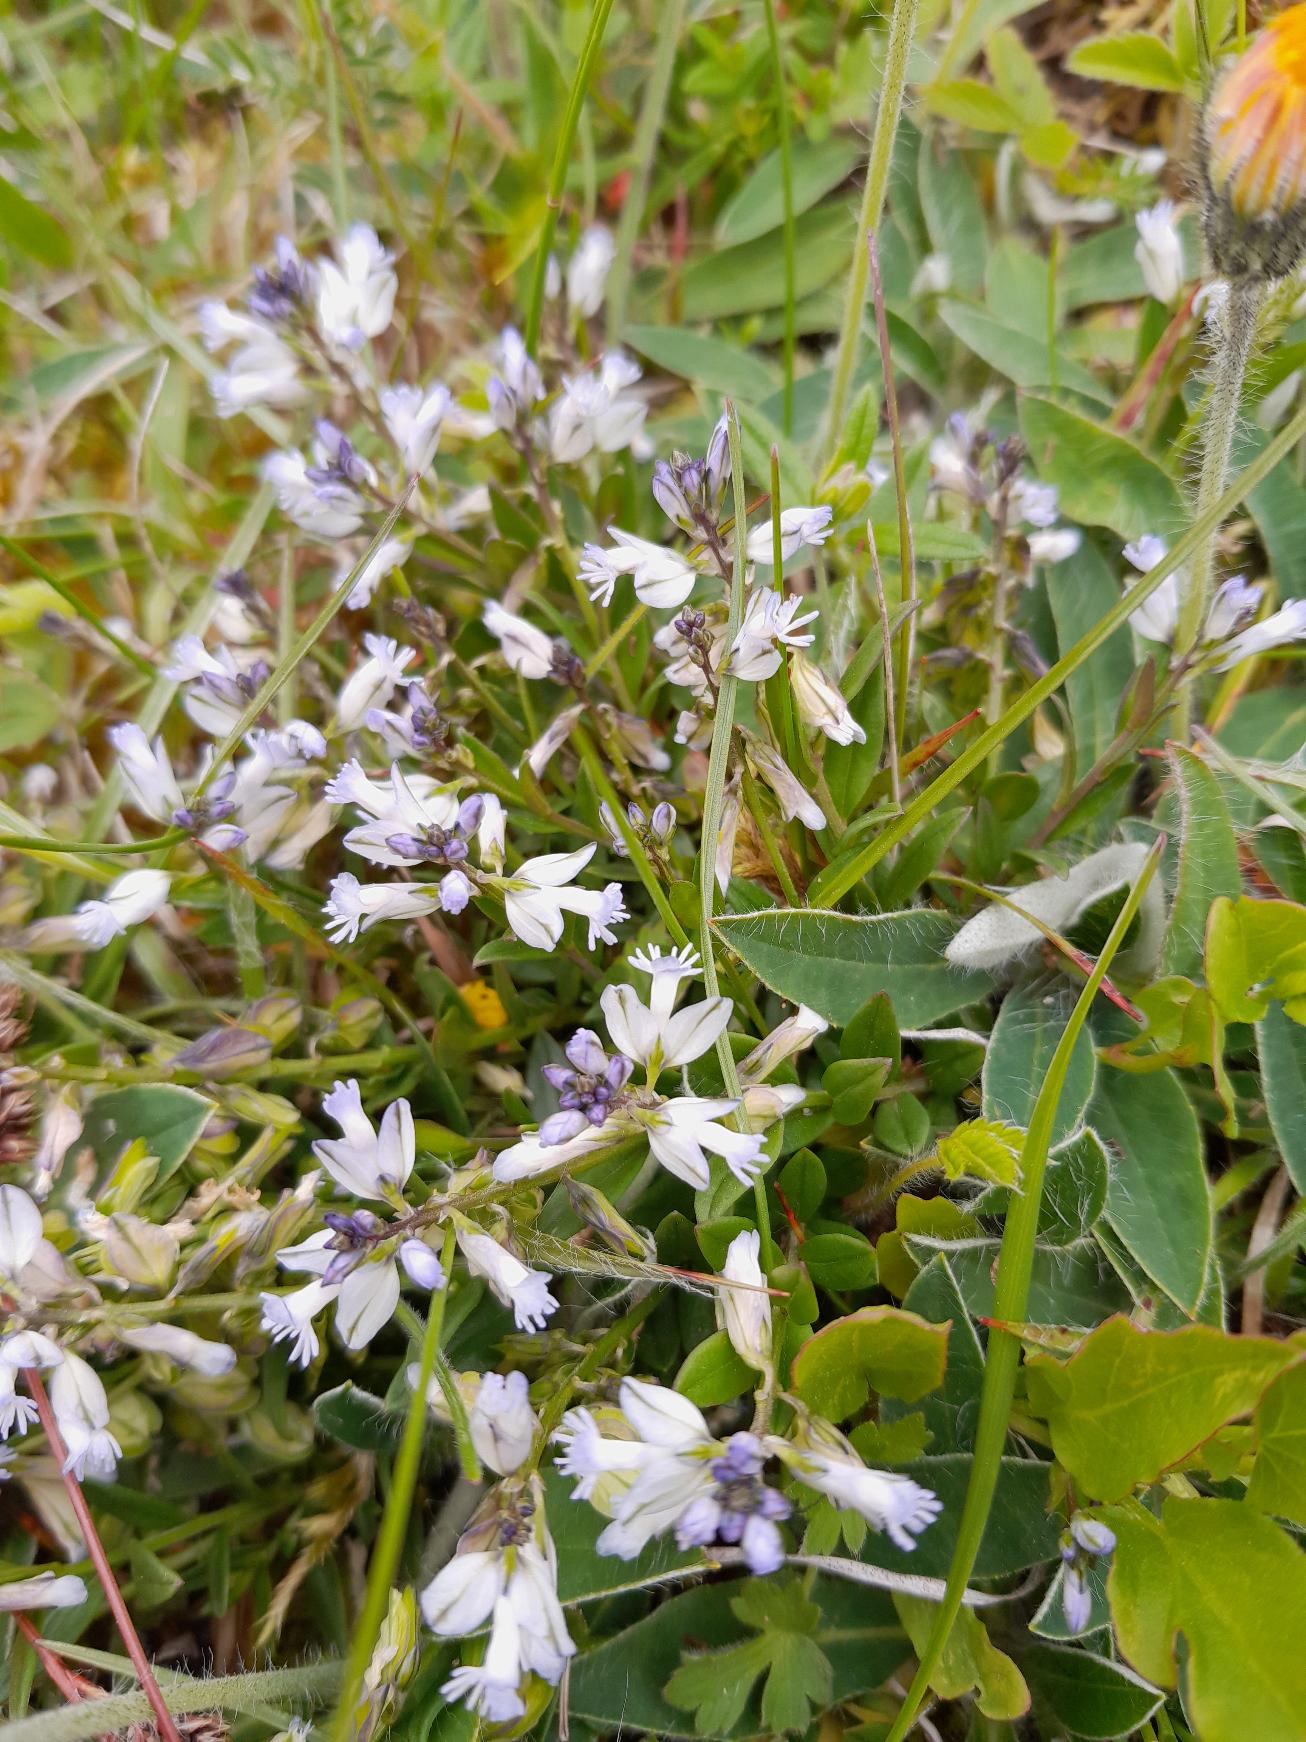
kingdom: Plantae
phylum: Tracheophyta
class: Magnoliopsida
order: Fabales
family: Polygalaceae
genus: Polygala
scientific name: Polygala vulgaris
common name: Almindelig mælkeurt
